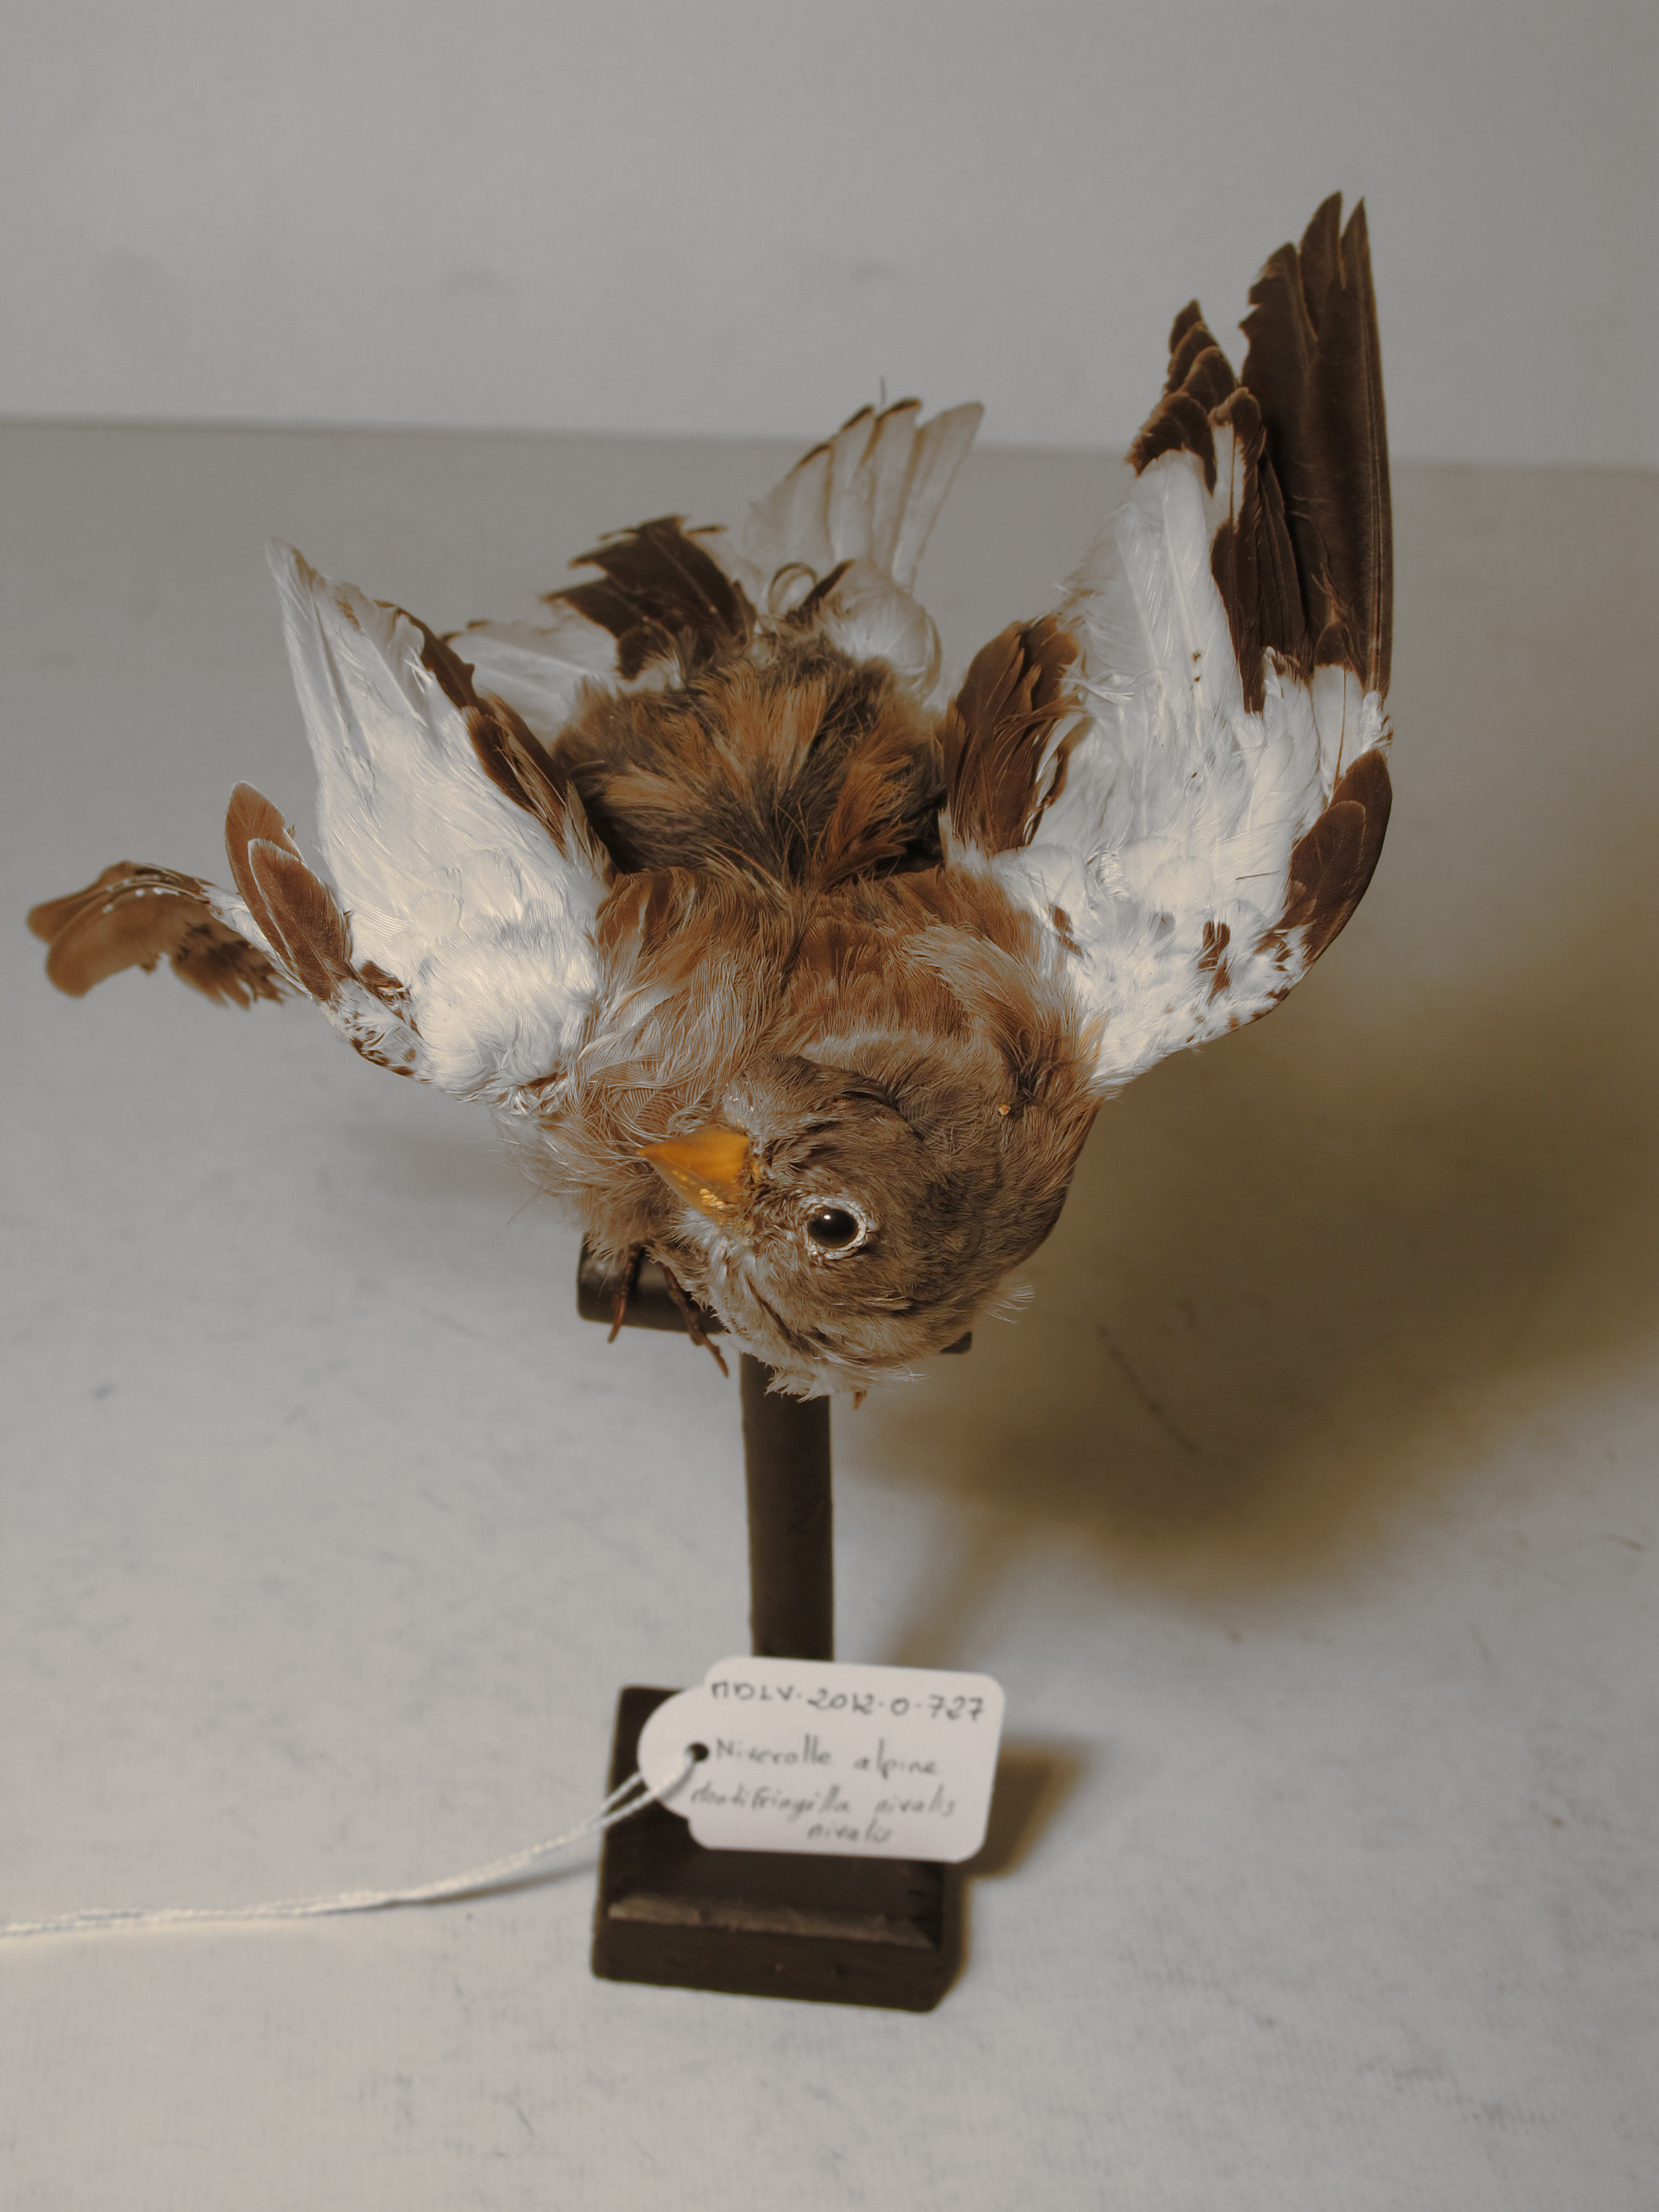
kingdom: Animalia
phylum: Chordata
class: Aves
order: Passeriformes
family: Passeridae
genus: Montifringilla
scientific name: Montifringilla nivalis
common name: White-winged Snowfinch
